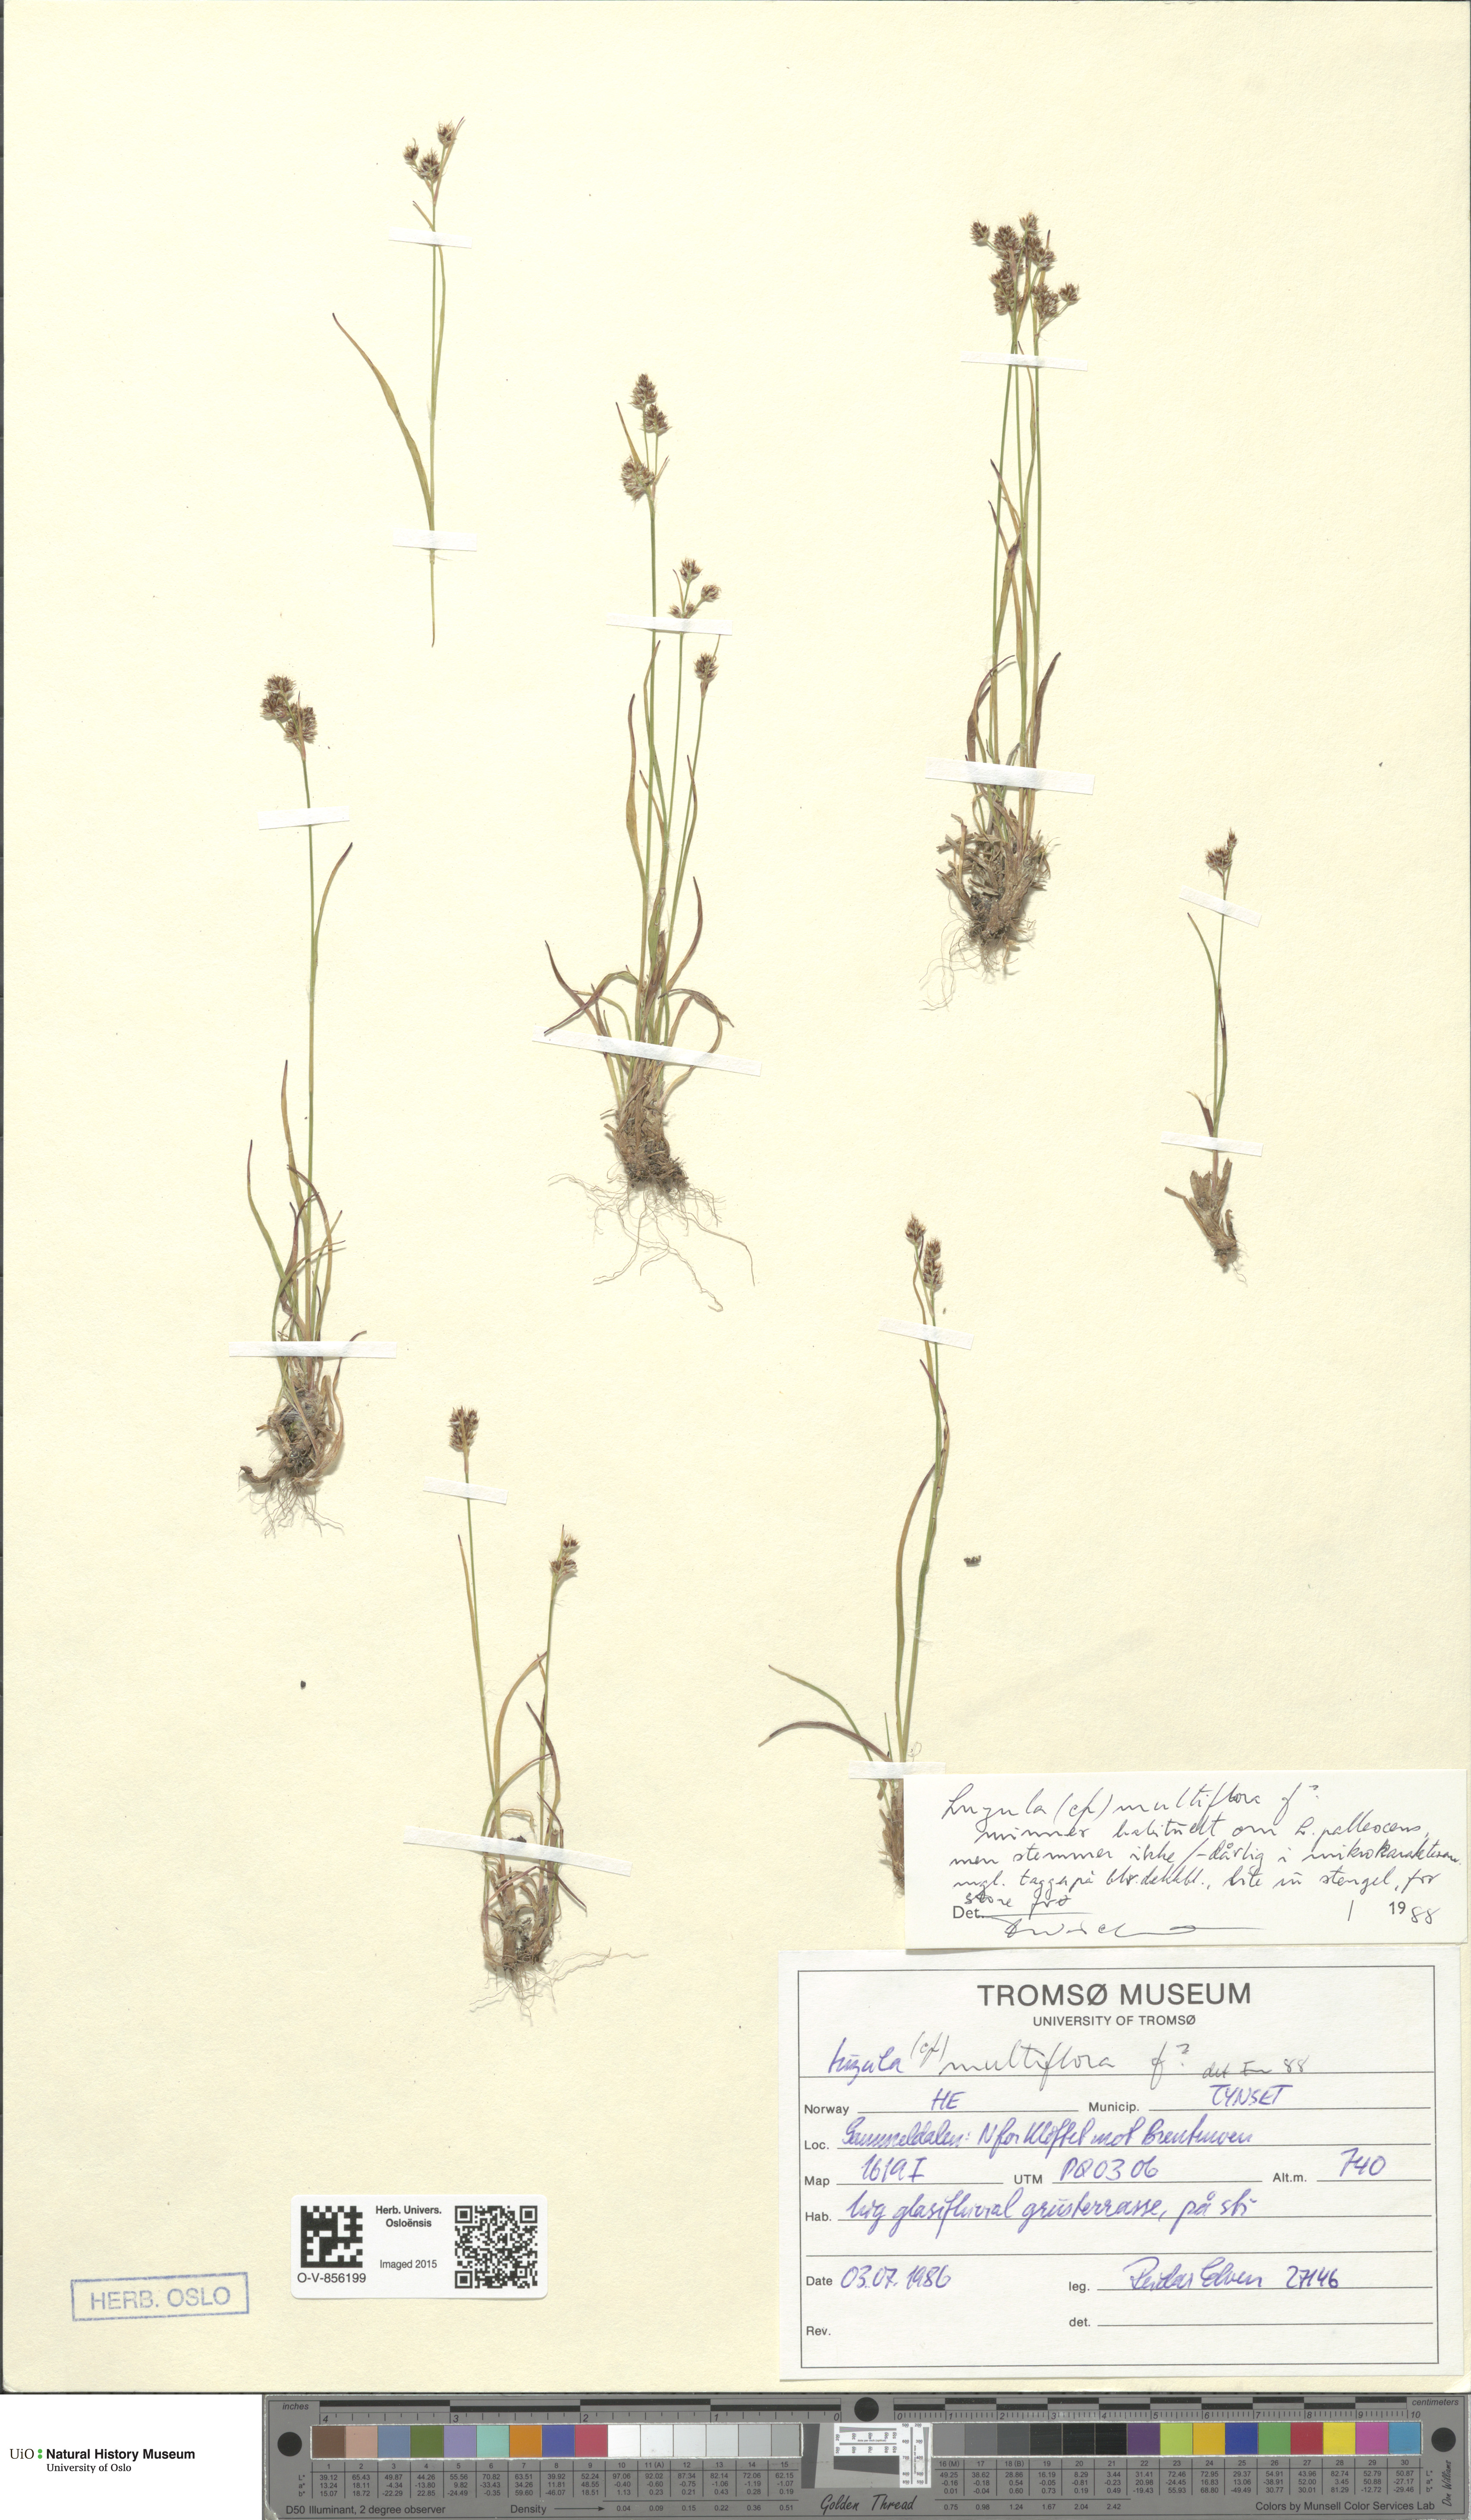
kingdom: Plantae
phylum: Tracheophyta
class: Liliopsida
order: Poales
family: Juncaceae
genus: Luzula
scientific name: Luzula multiflora
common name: Heath wood-rush
